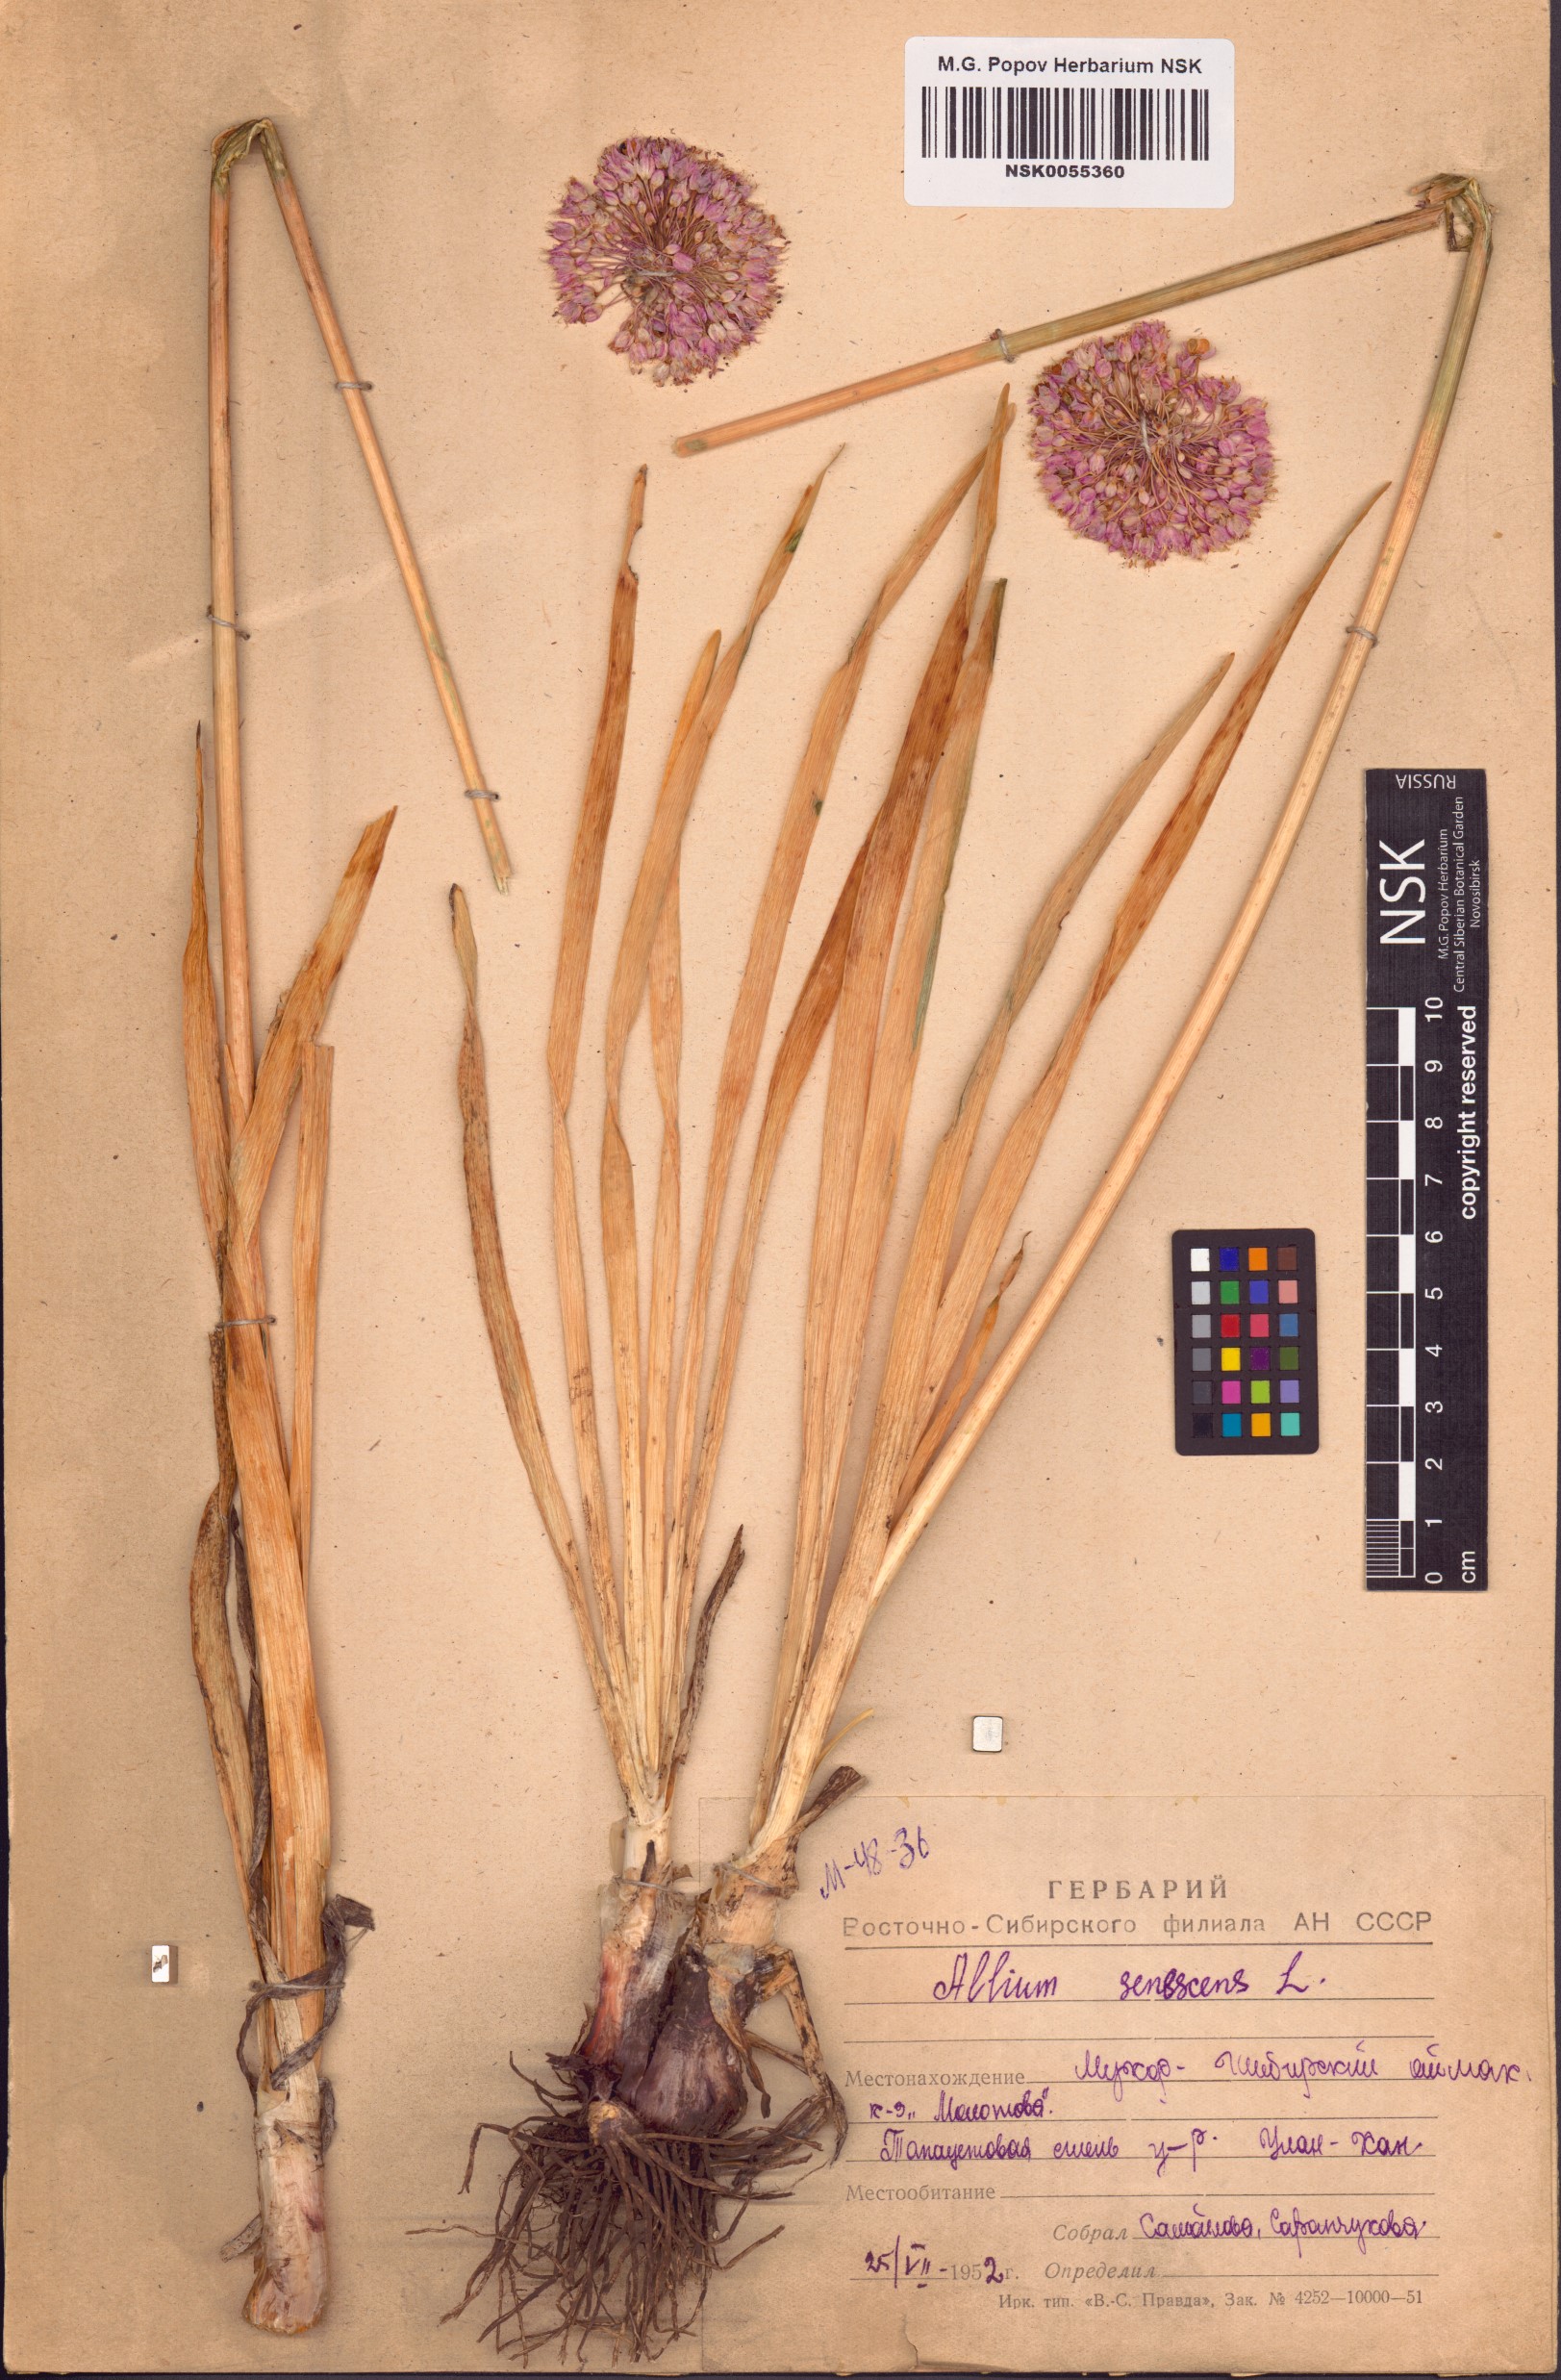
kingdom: Plantae
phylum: Tracheophyta
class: Liliopsida
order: Asparagales
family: Amaryllidaceae
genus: Allium
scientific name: Allium senescens
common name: German garlic
